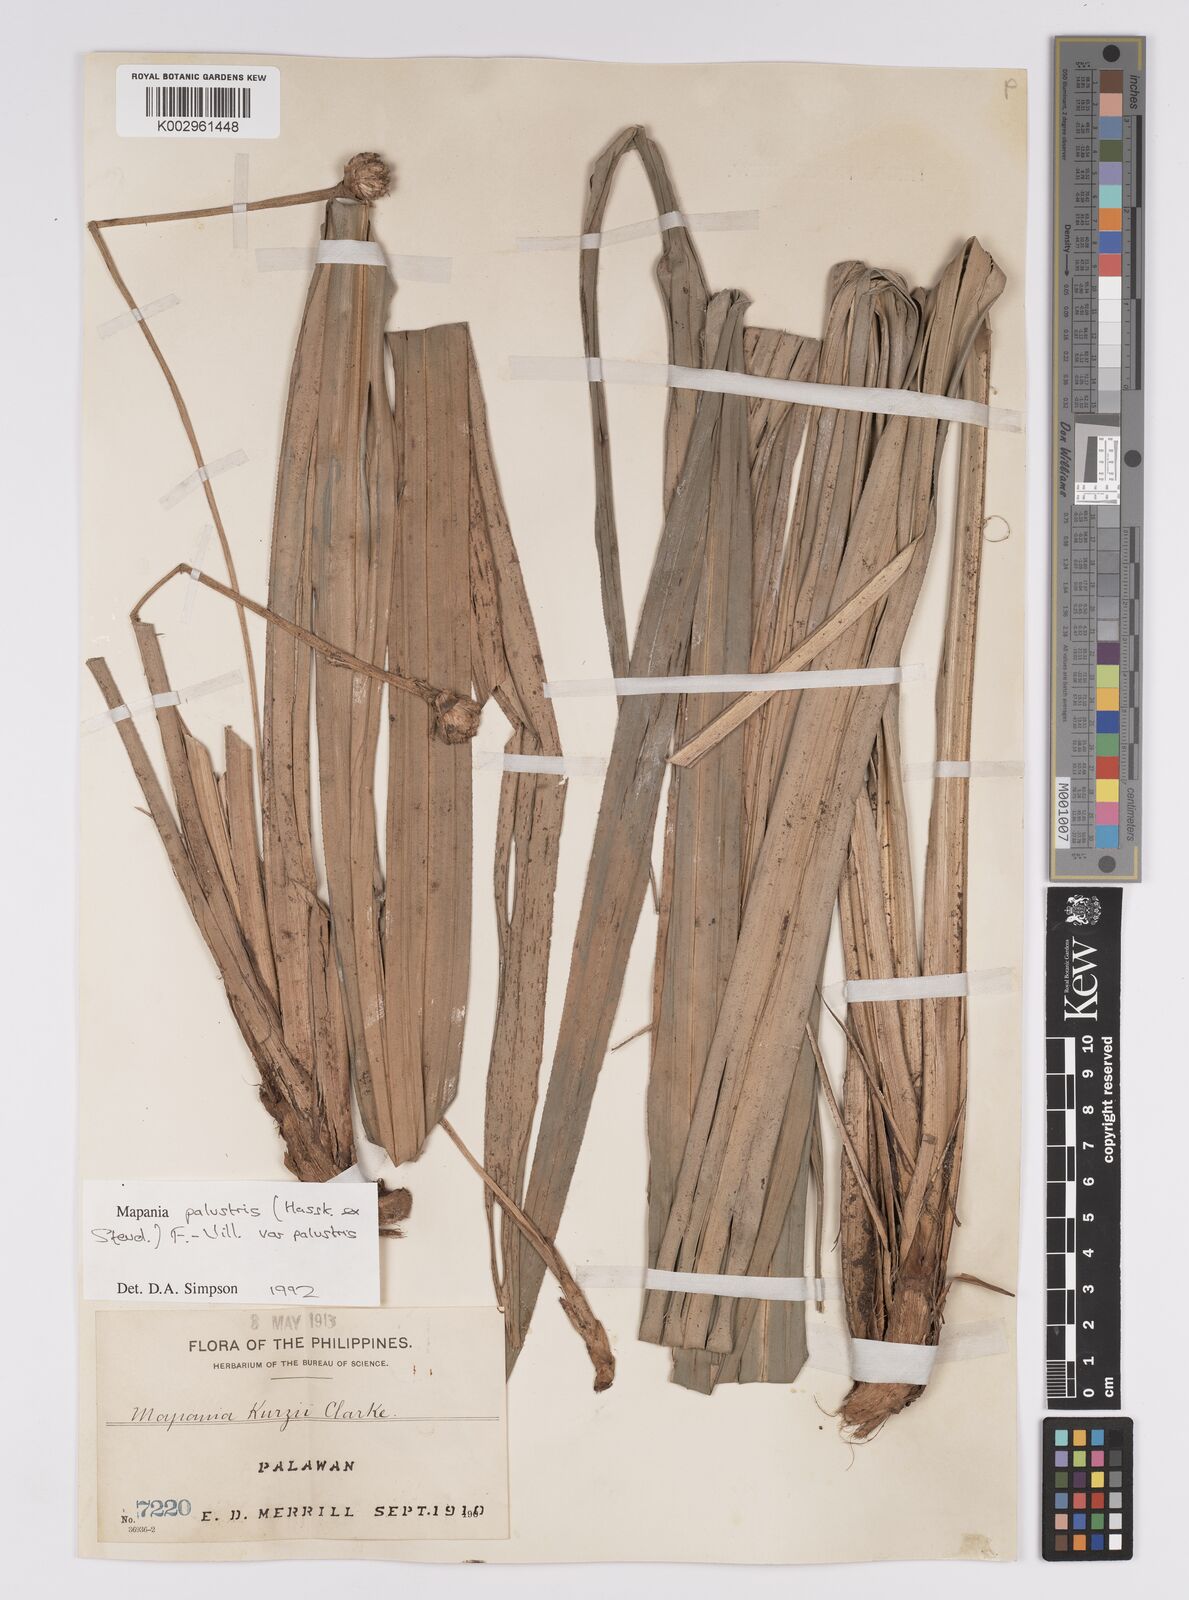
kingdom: Plantae
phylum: Tracheophyta
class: Liliopsida
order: Poales
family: Cyperaceae
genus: Mapania
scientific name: Mapania palustris
